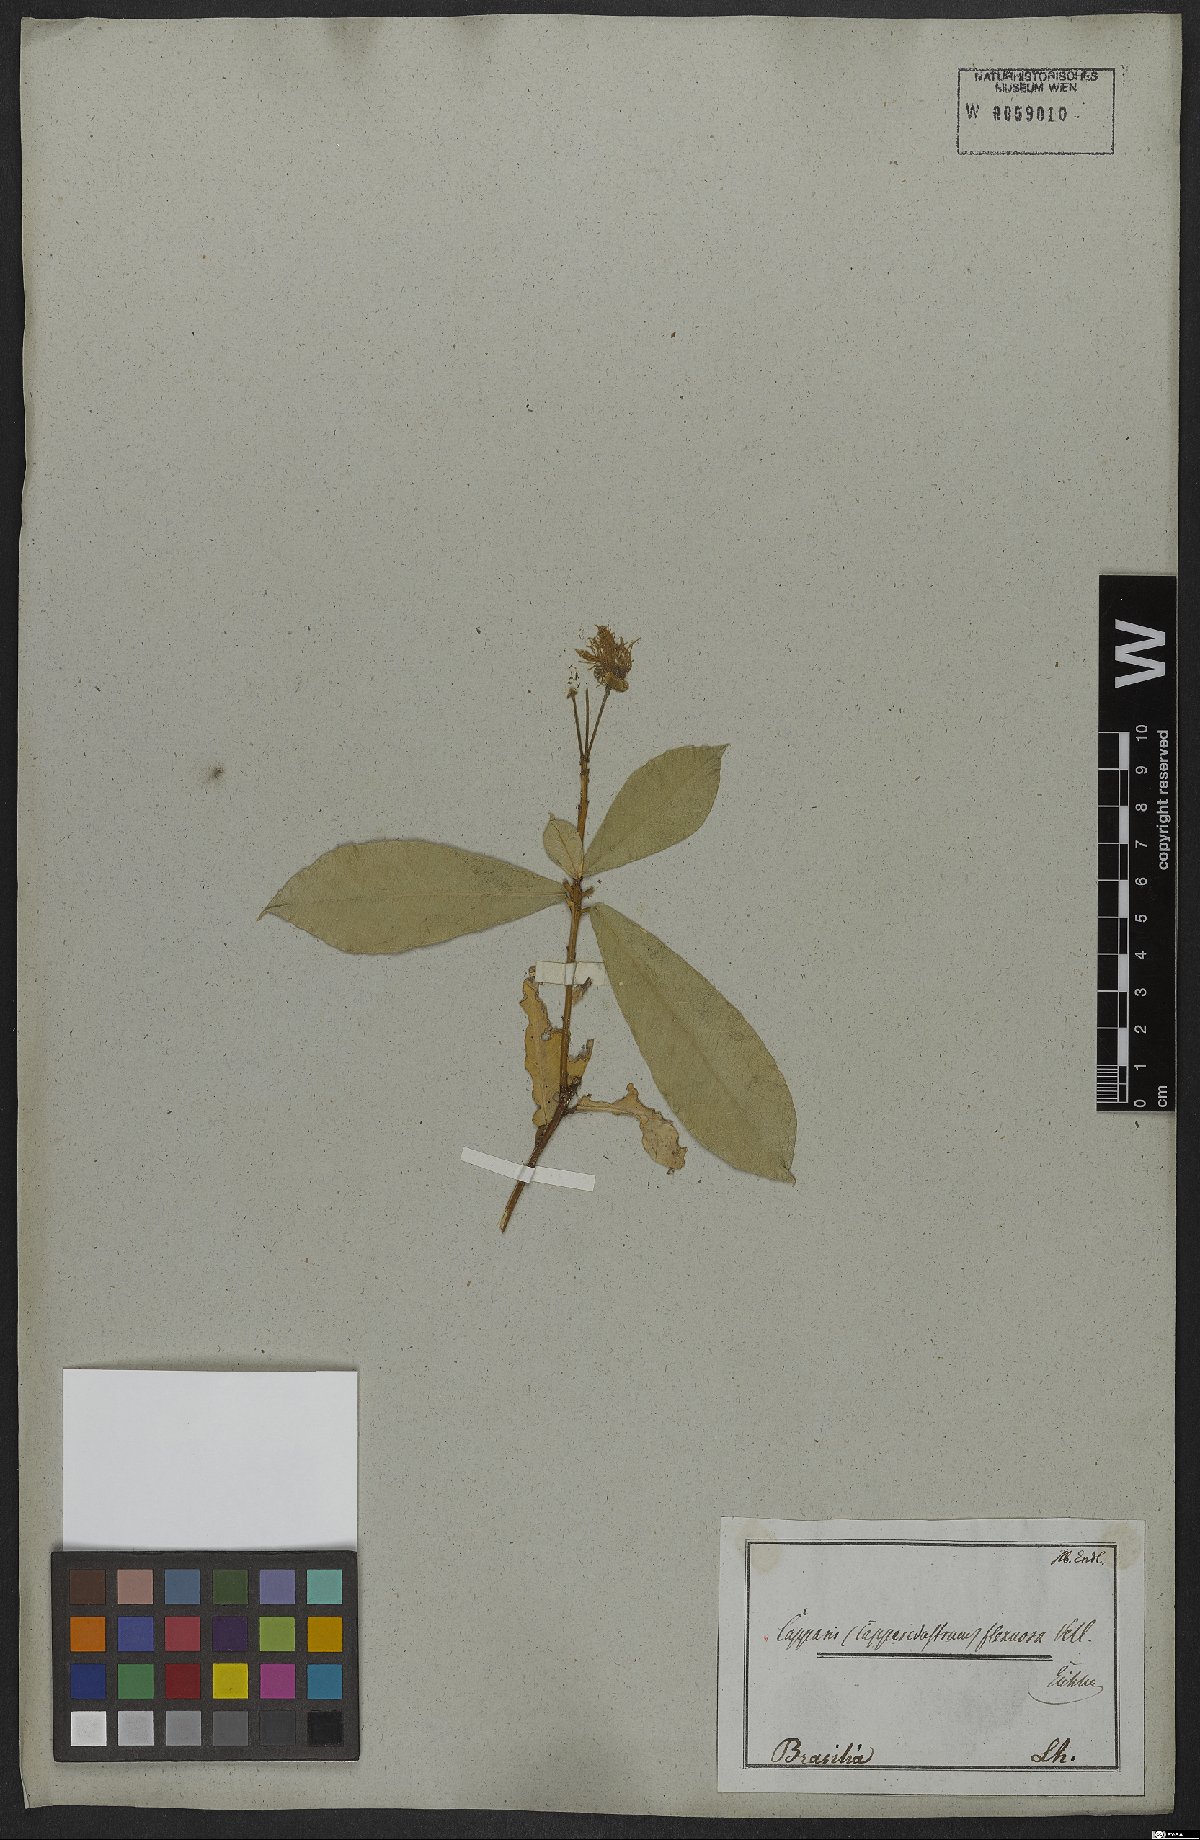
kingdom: Plantae
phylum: Tracheophyta
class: Magnoliopsida
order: Brassicales
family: Capparaceae
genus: Cynophalla
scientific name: Cynophalla flexuosa
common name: Capertree
